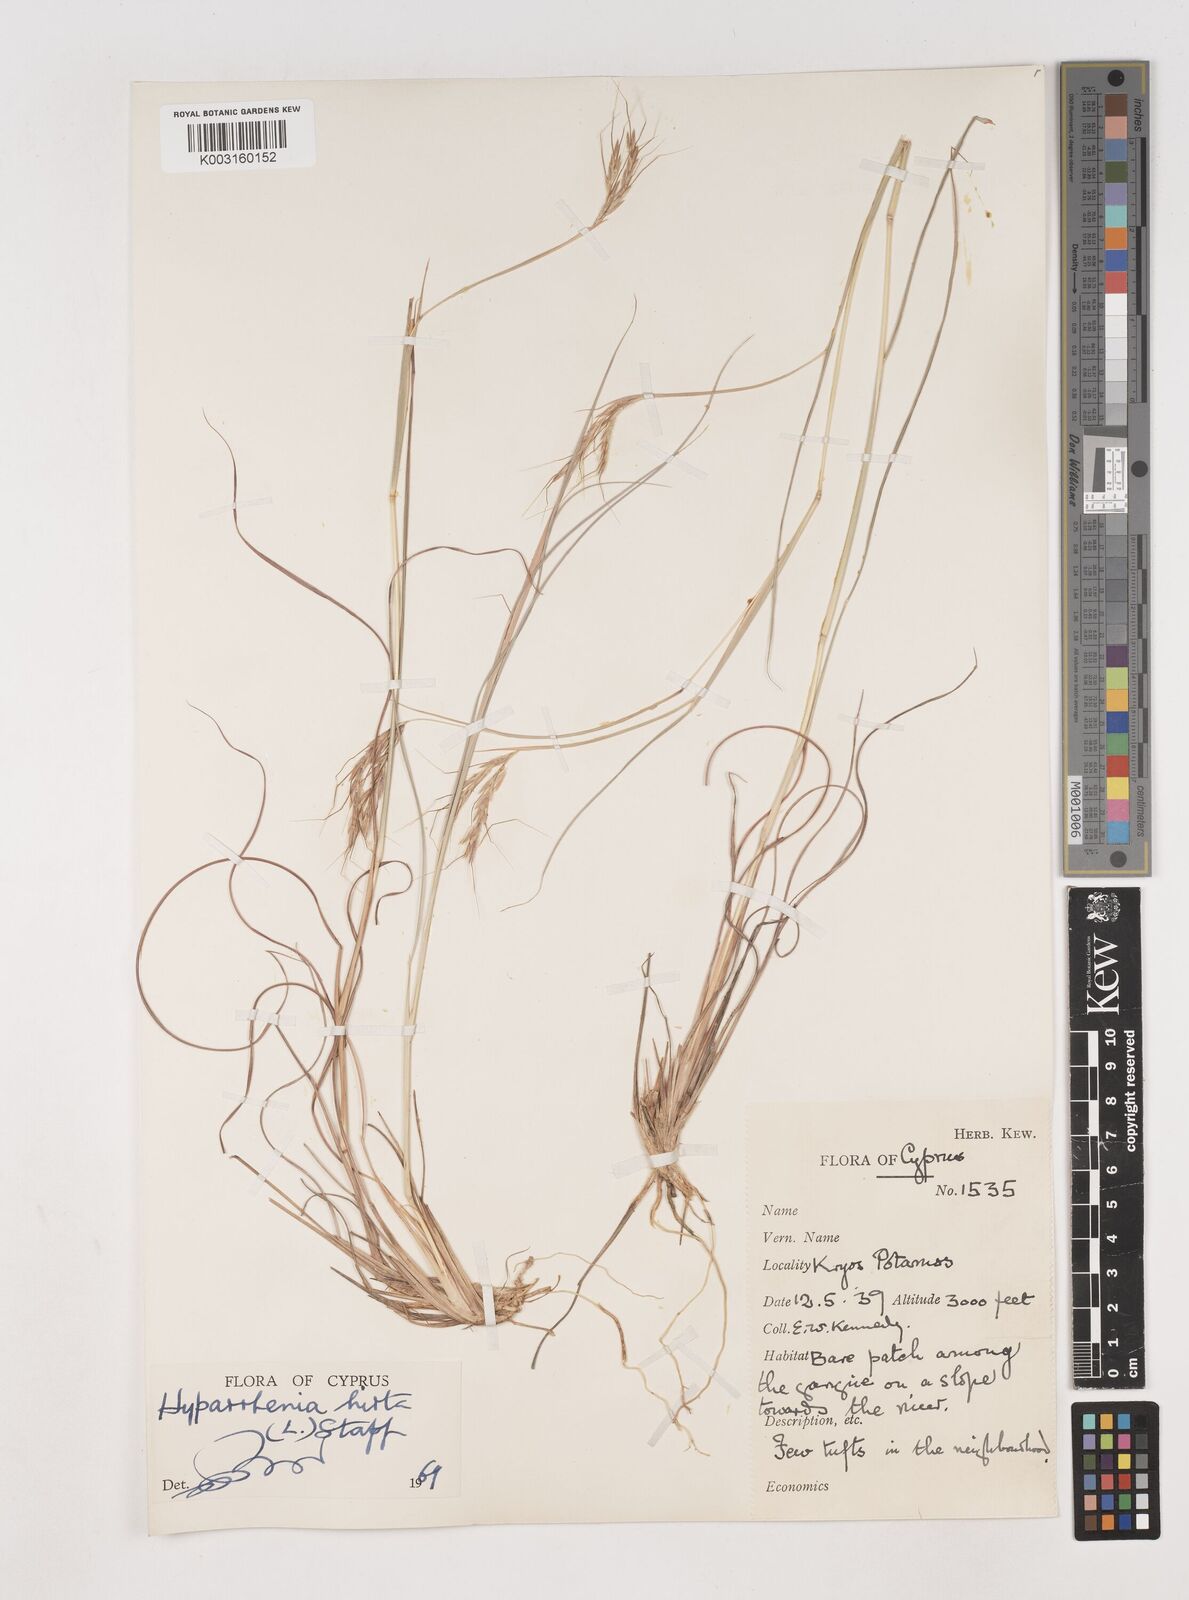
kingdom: Plantae
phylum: Tracheophyta
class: Liliopsida
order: Poales
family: Poaceae
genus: Hyparrhenia
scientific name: Hyparrhenia hirta
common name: Thatching grass
